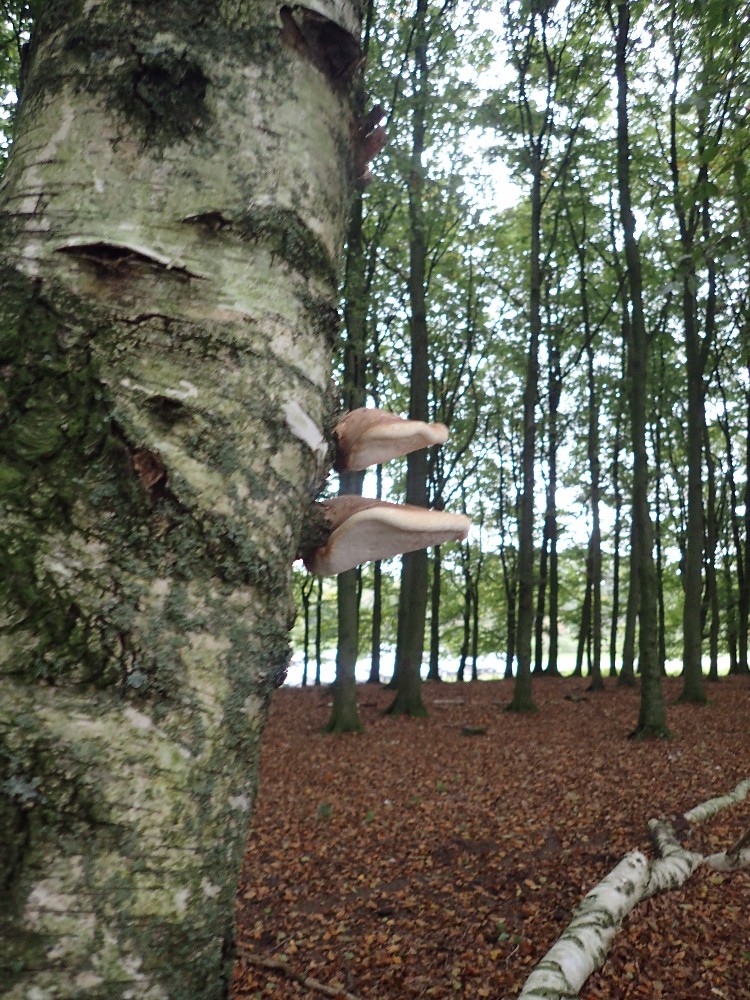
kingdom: Fungi
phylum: Basidiomycota
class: Agaricomycetes
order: Polyporales
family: Fomitopsidaceae
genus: Fomitopsis
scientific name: Fomitopsis betulina
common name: birkeporesvamp
